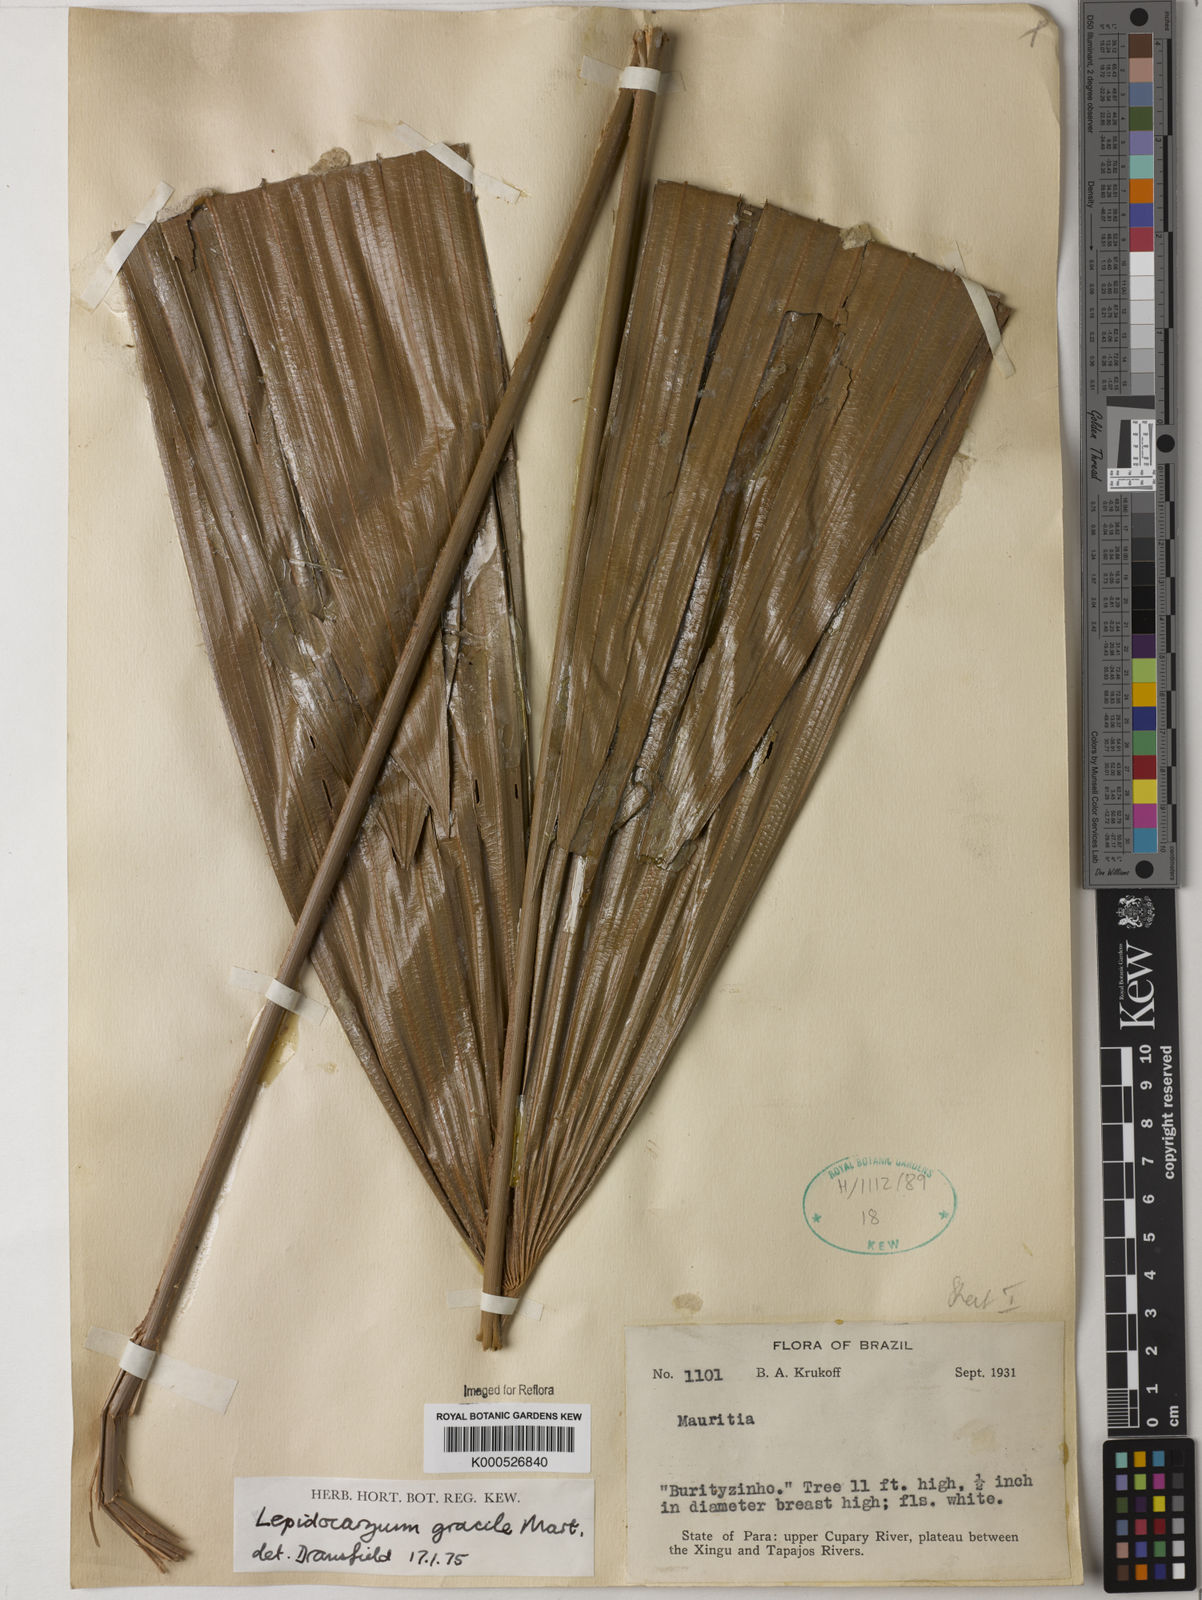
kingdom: Plantae
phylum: Tracheophyta
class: Liliopsida
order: Arecales
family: Arecaceae
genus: Lepidocaryum
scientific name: Lepidocaryum tenue
